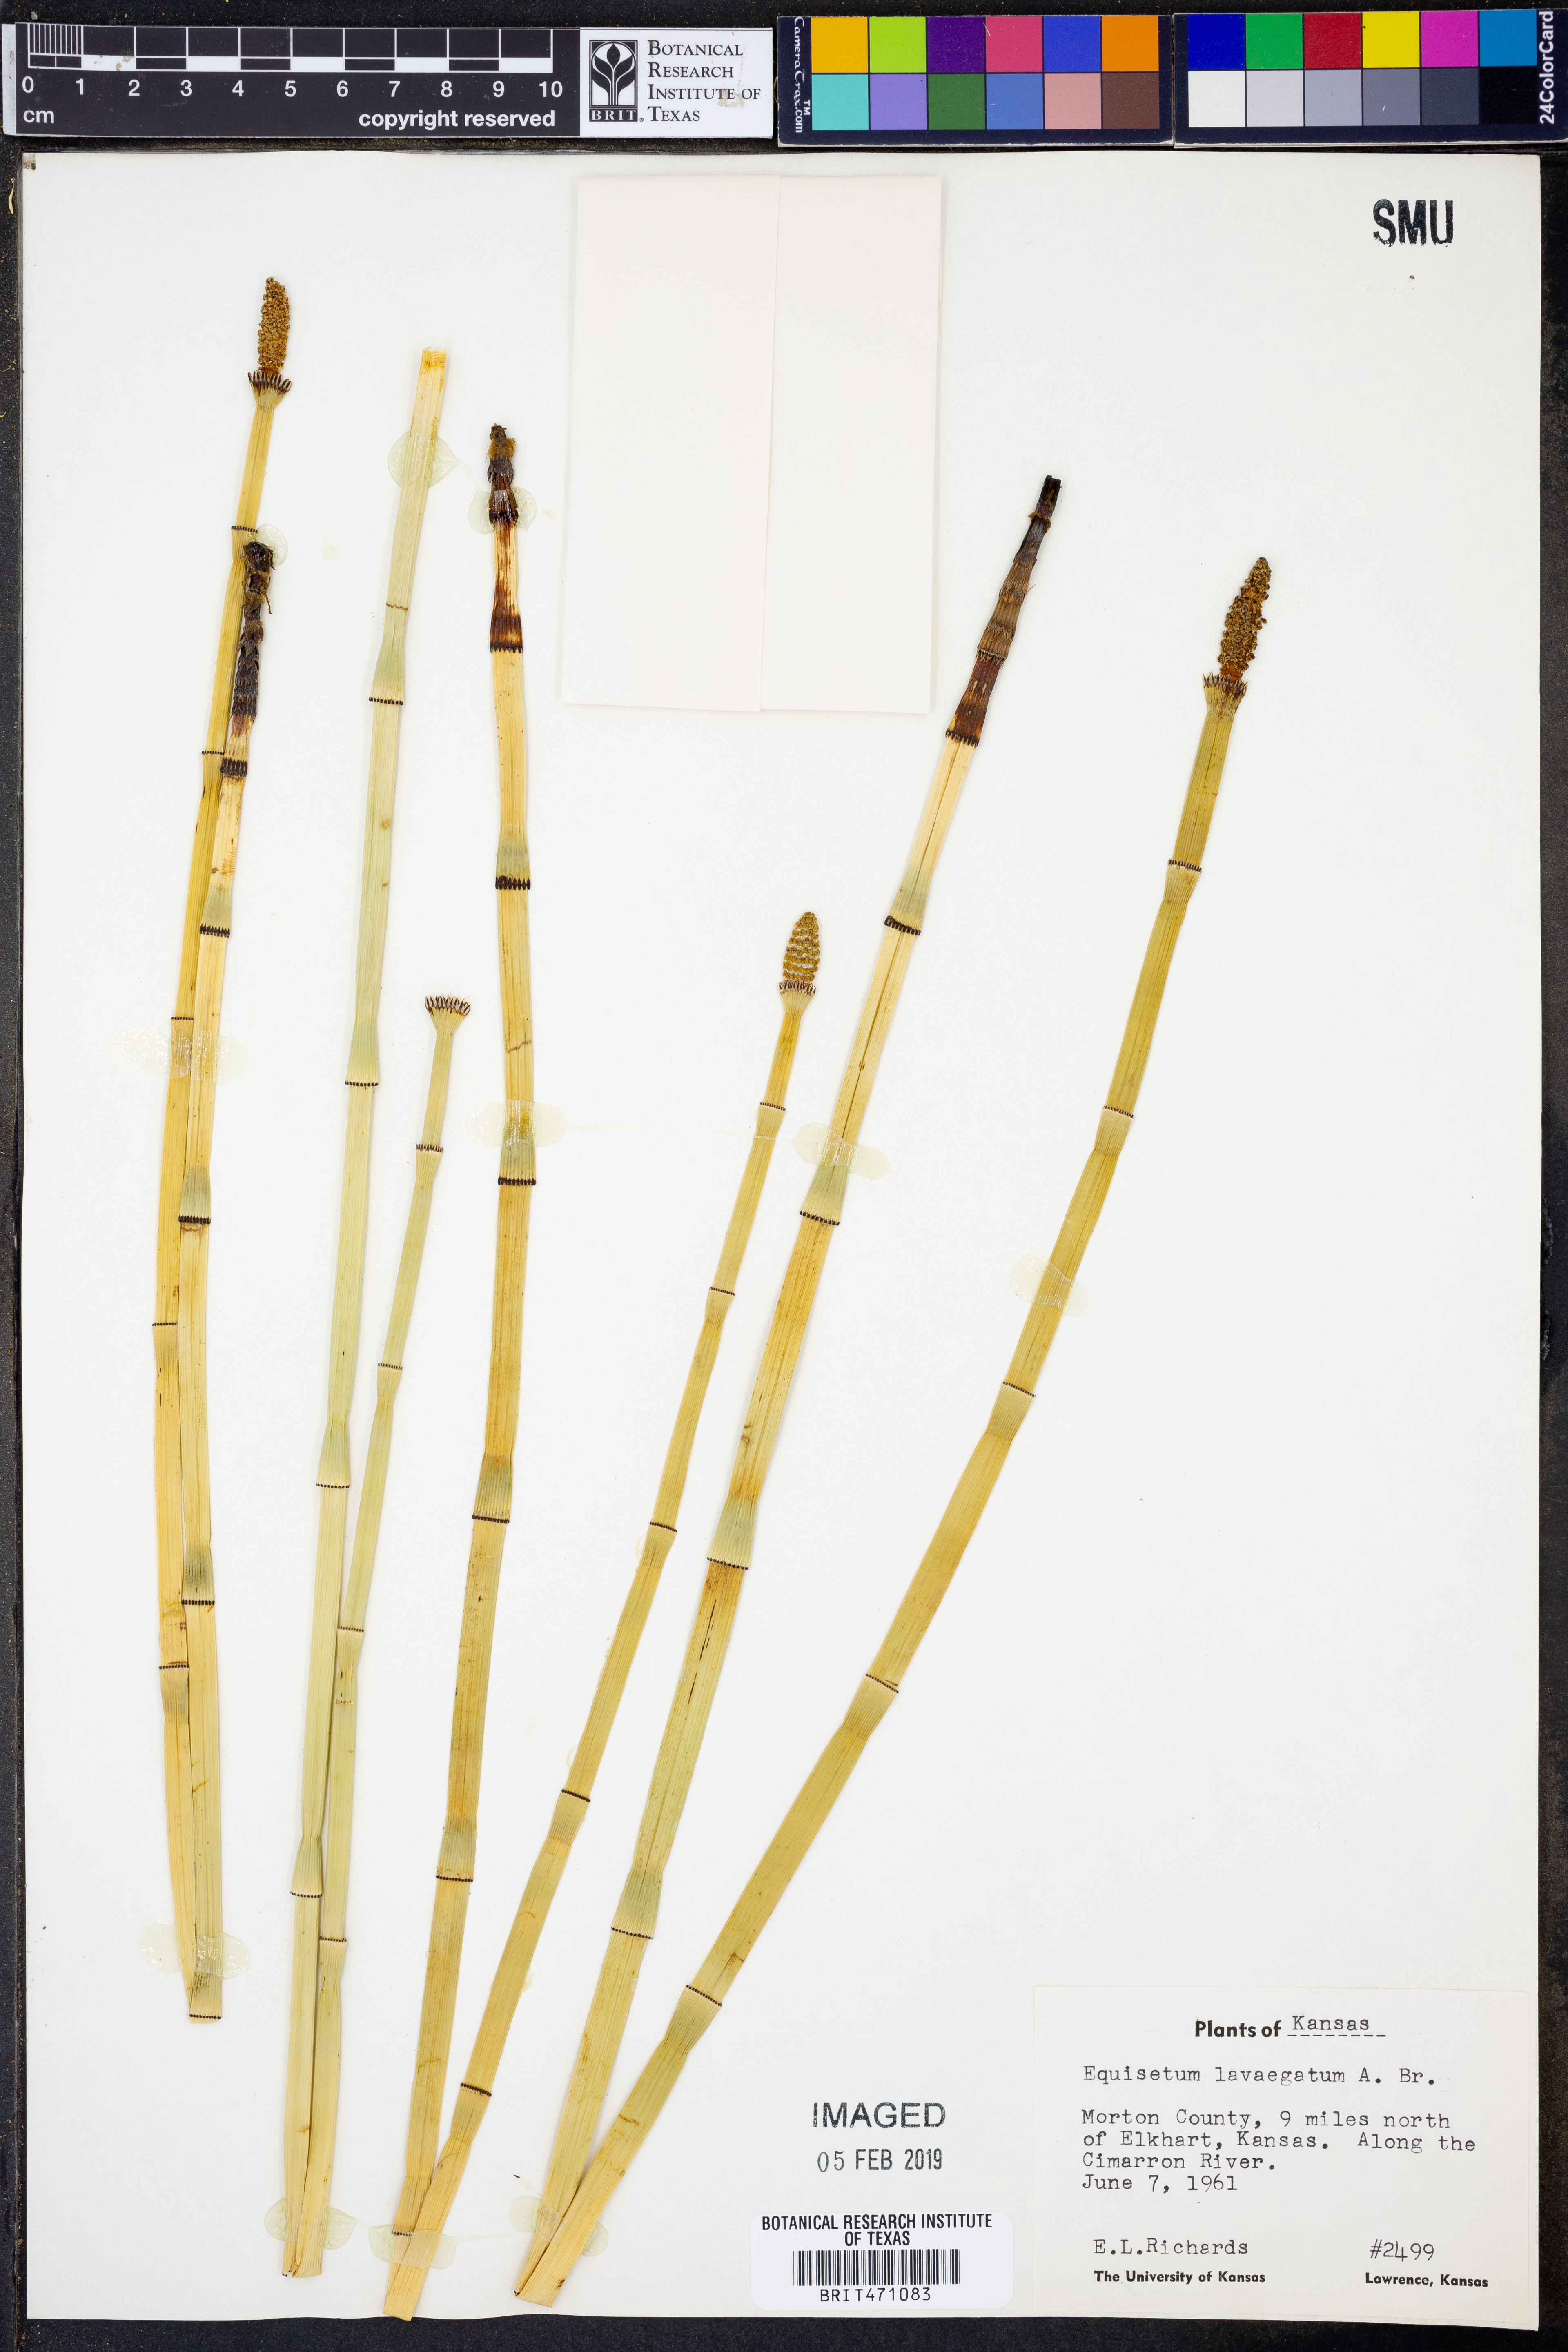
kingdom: Plantae
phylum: Tracheophyta
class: Polypodiopsida
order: Equisetales
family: Equisetaceae
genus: Equisetum
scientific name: Equisetum laevigatum
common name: Smooth scouring-rush
